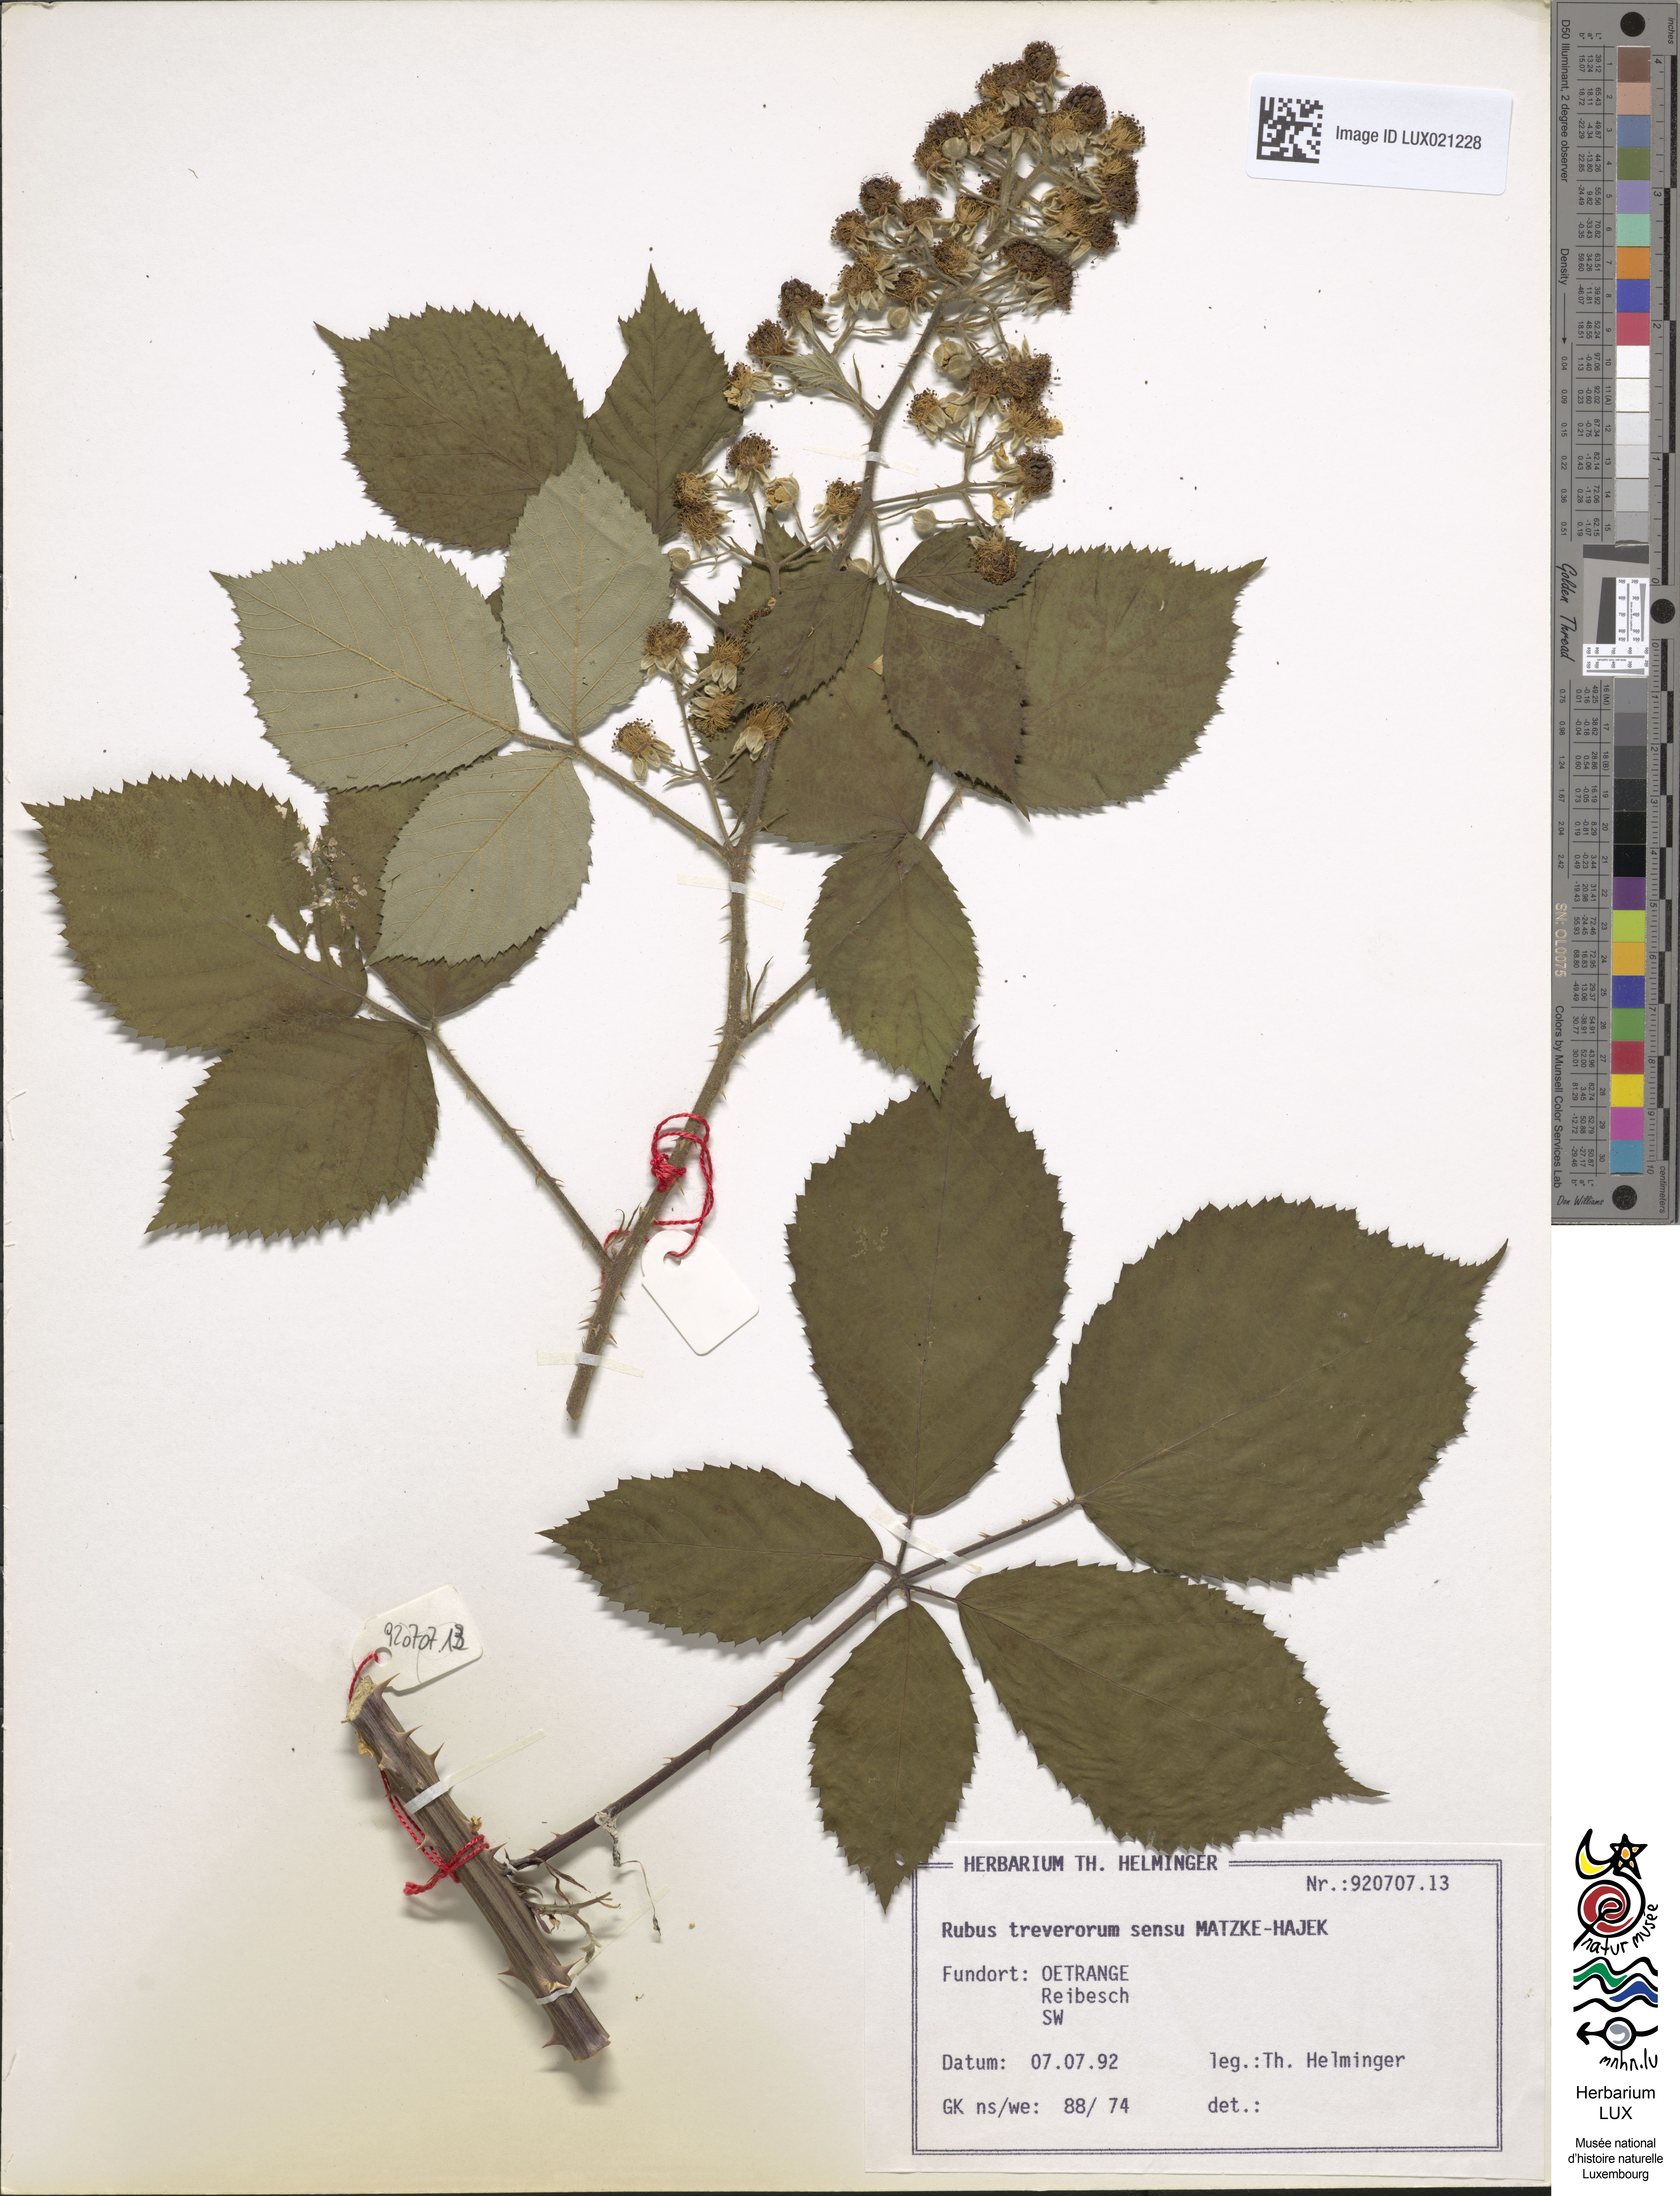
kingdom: Plantae
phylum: Tracheophyta
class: Magnoliopsida
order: Rosales
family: Rosaceae
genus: Rubus
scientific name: Rubus
